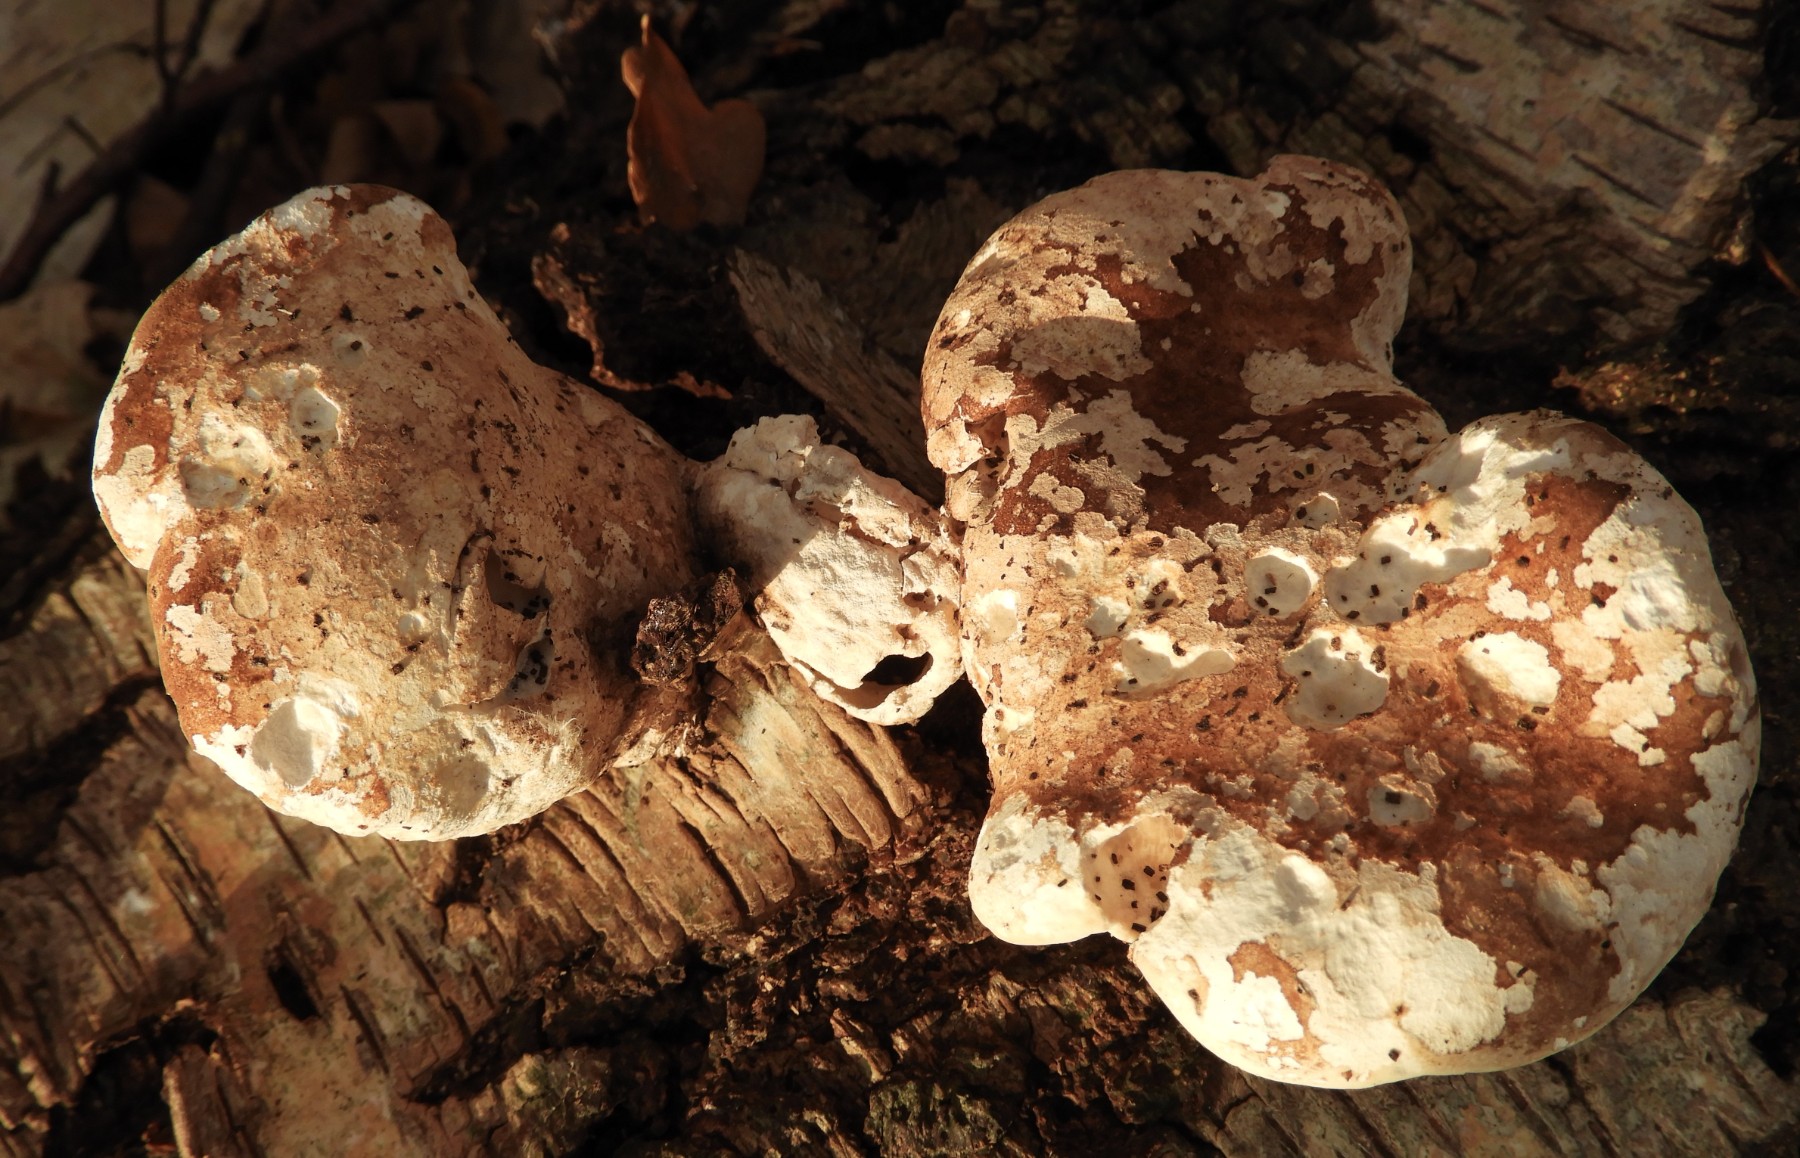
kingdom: Fungi
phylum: Basidiomycota
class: Agaricomycetes
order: Polyporales
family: Fomitopsidaceae
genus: Fomitopsis
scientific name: Fomitopsis betulina
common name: birkeporesvamp
